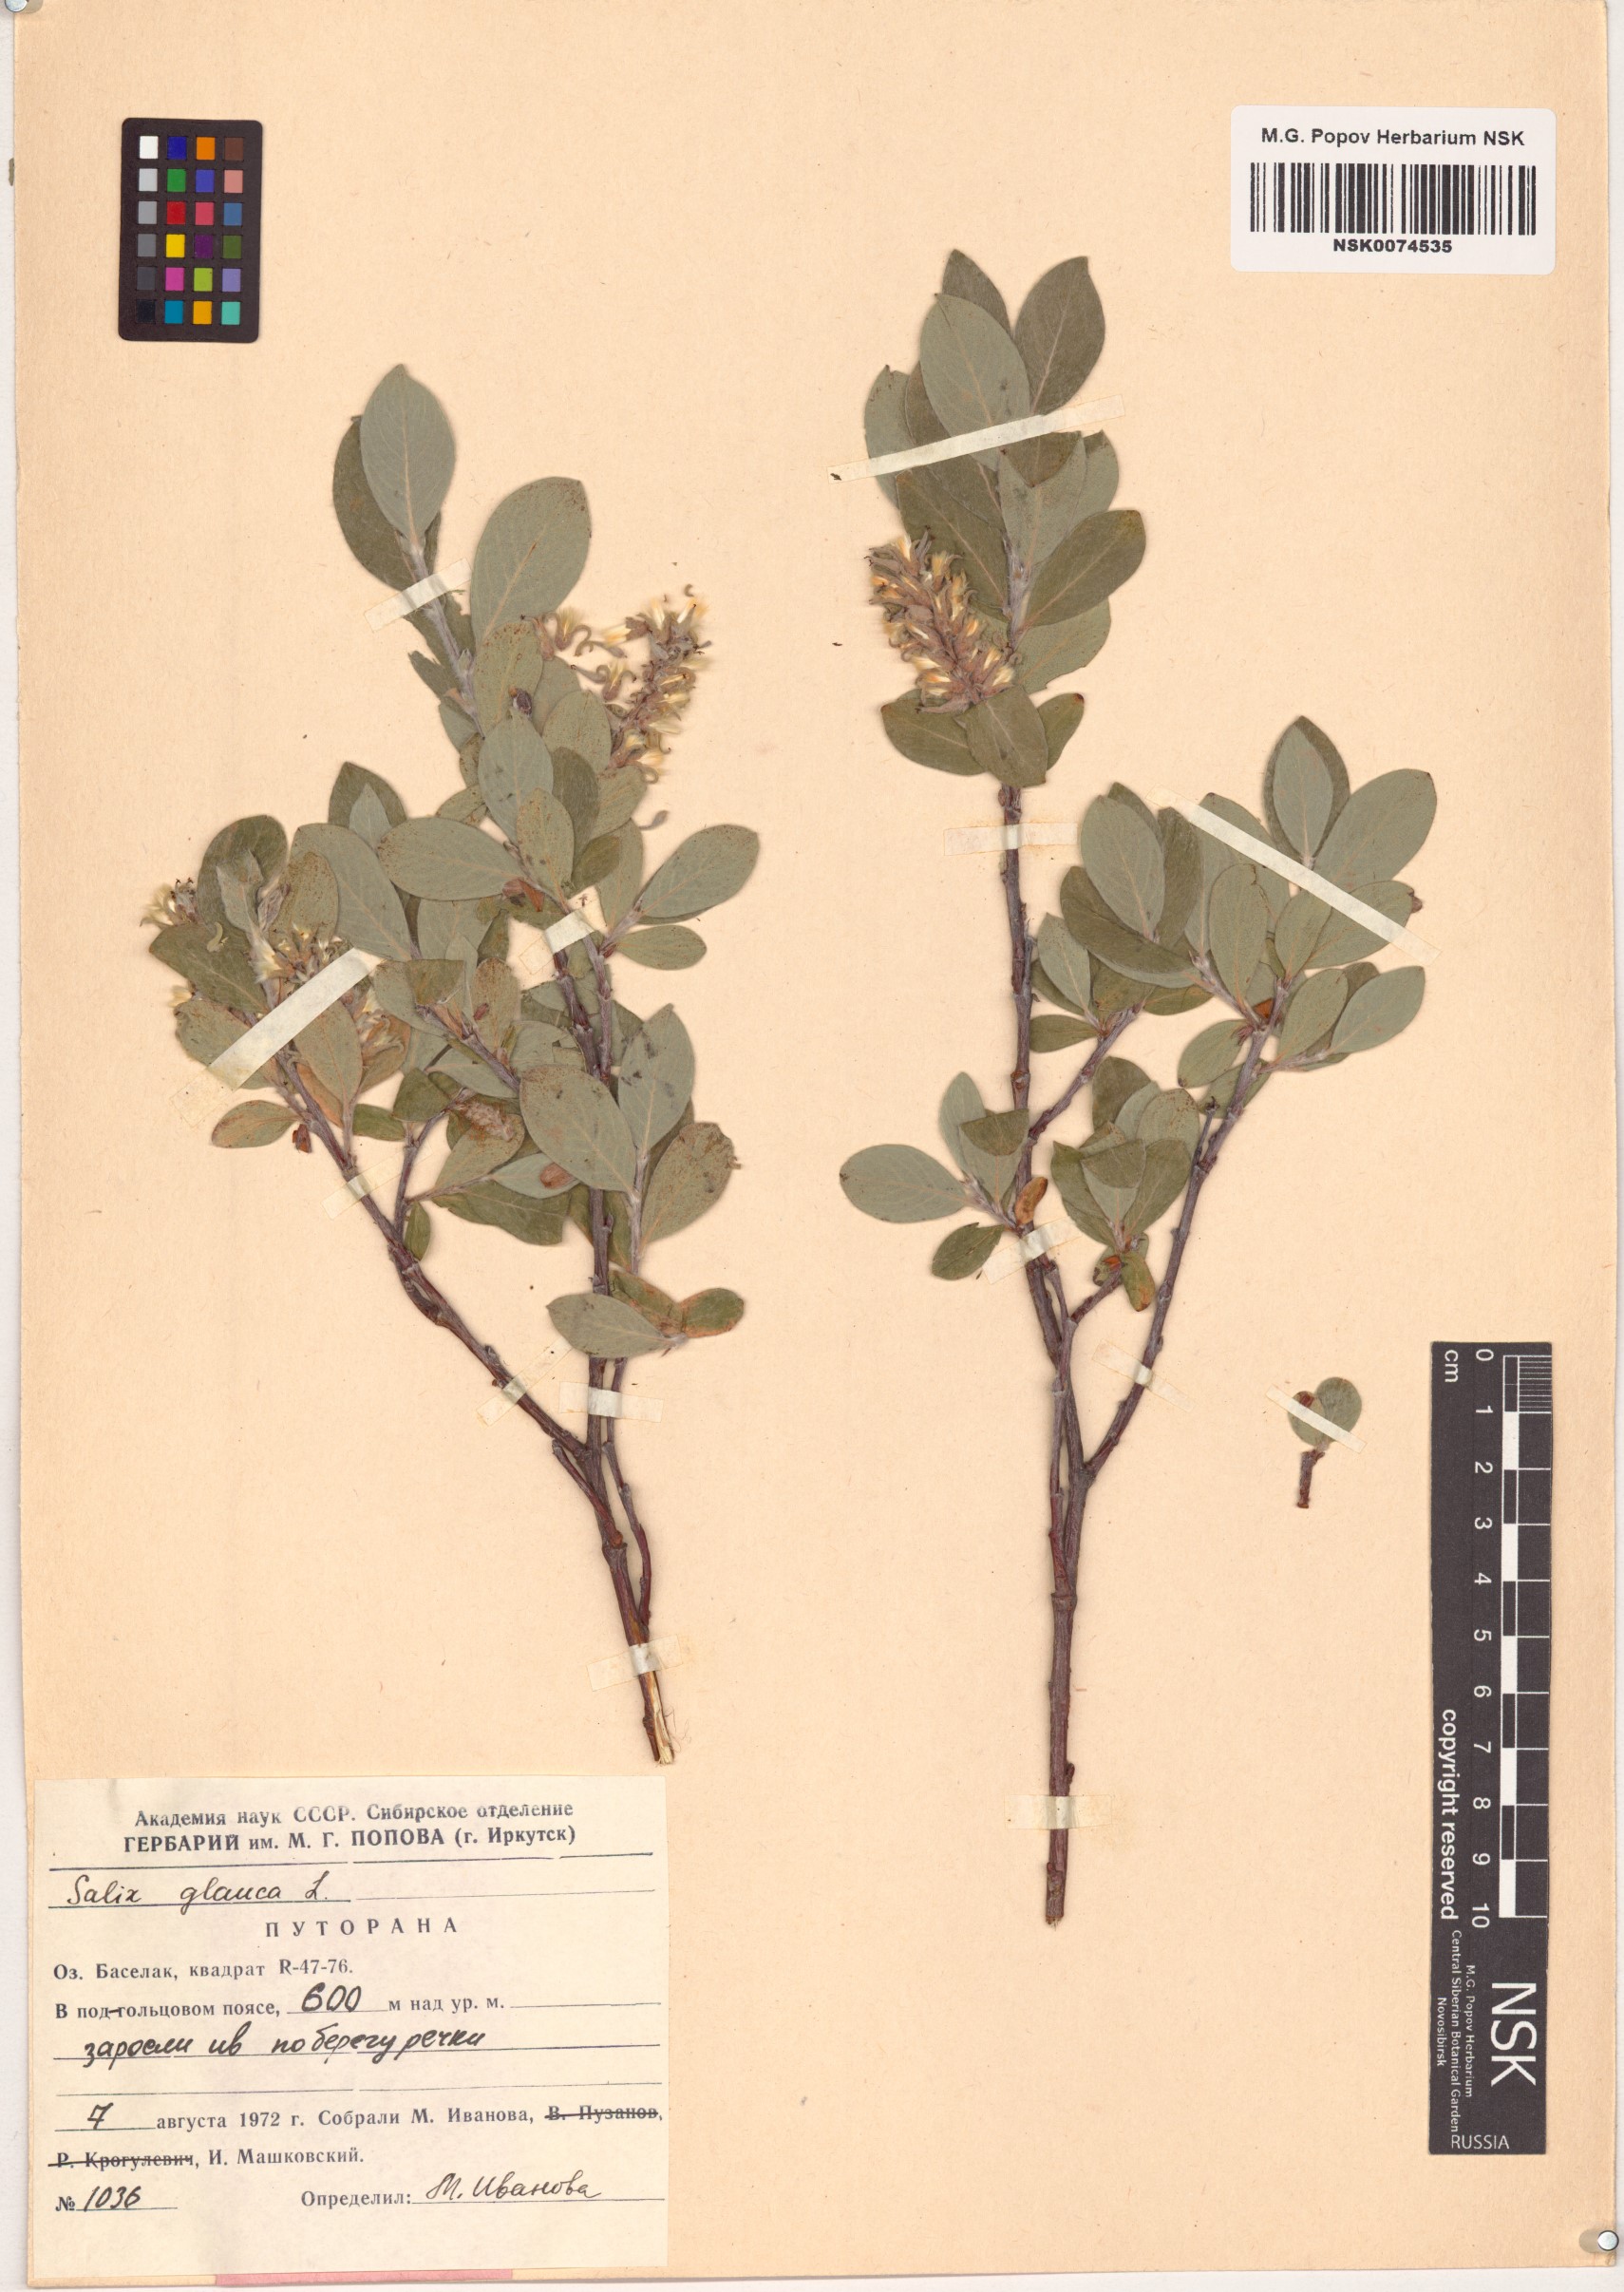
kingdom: Plantae
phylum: Tracheophyta
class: Magnoliopsida
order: Malpighiales
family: Salicaceae
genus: Salix
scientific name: Salix glauca
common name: Glaucous willow
